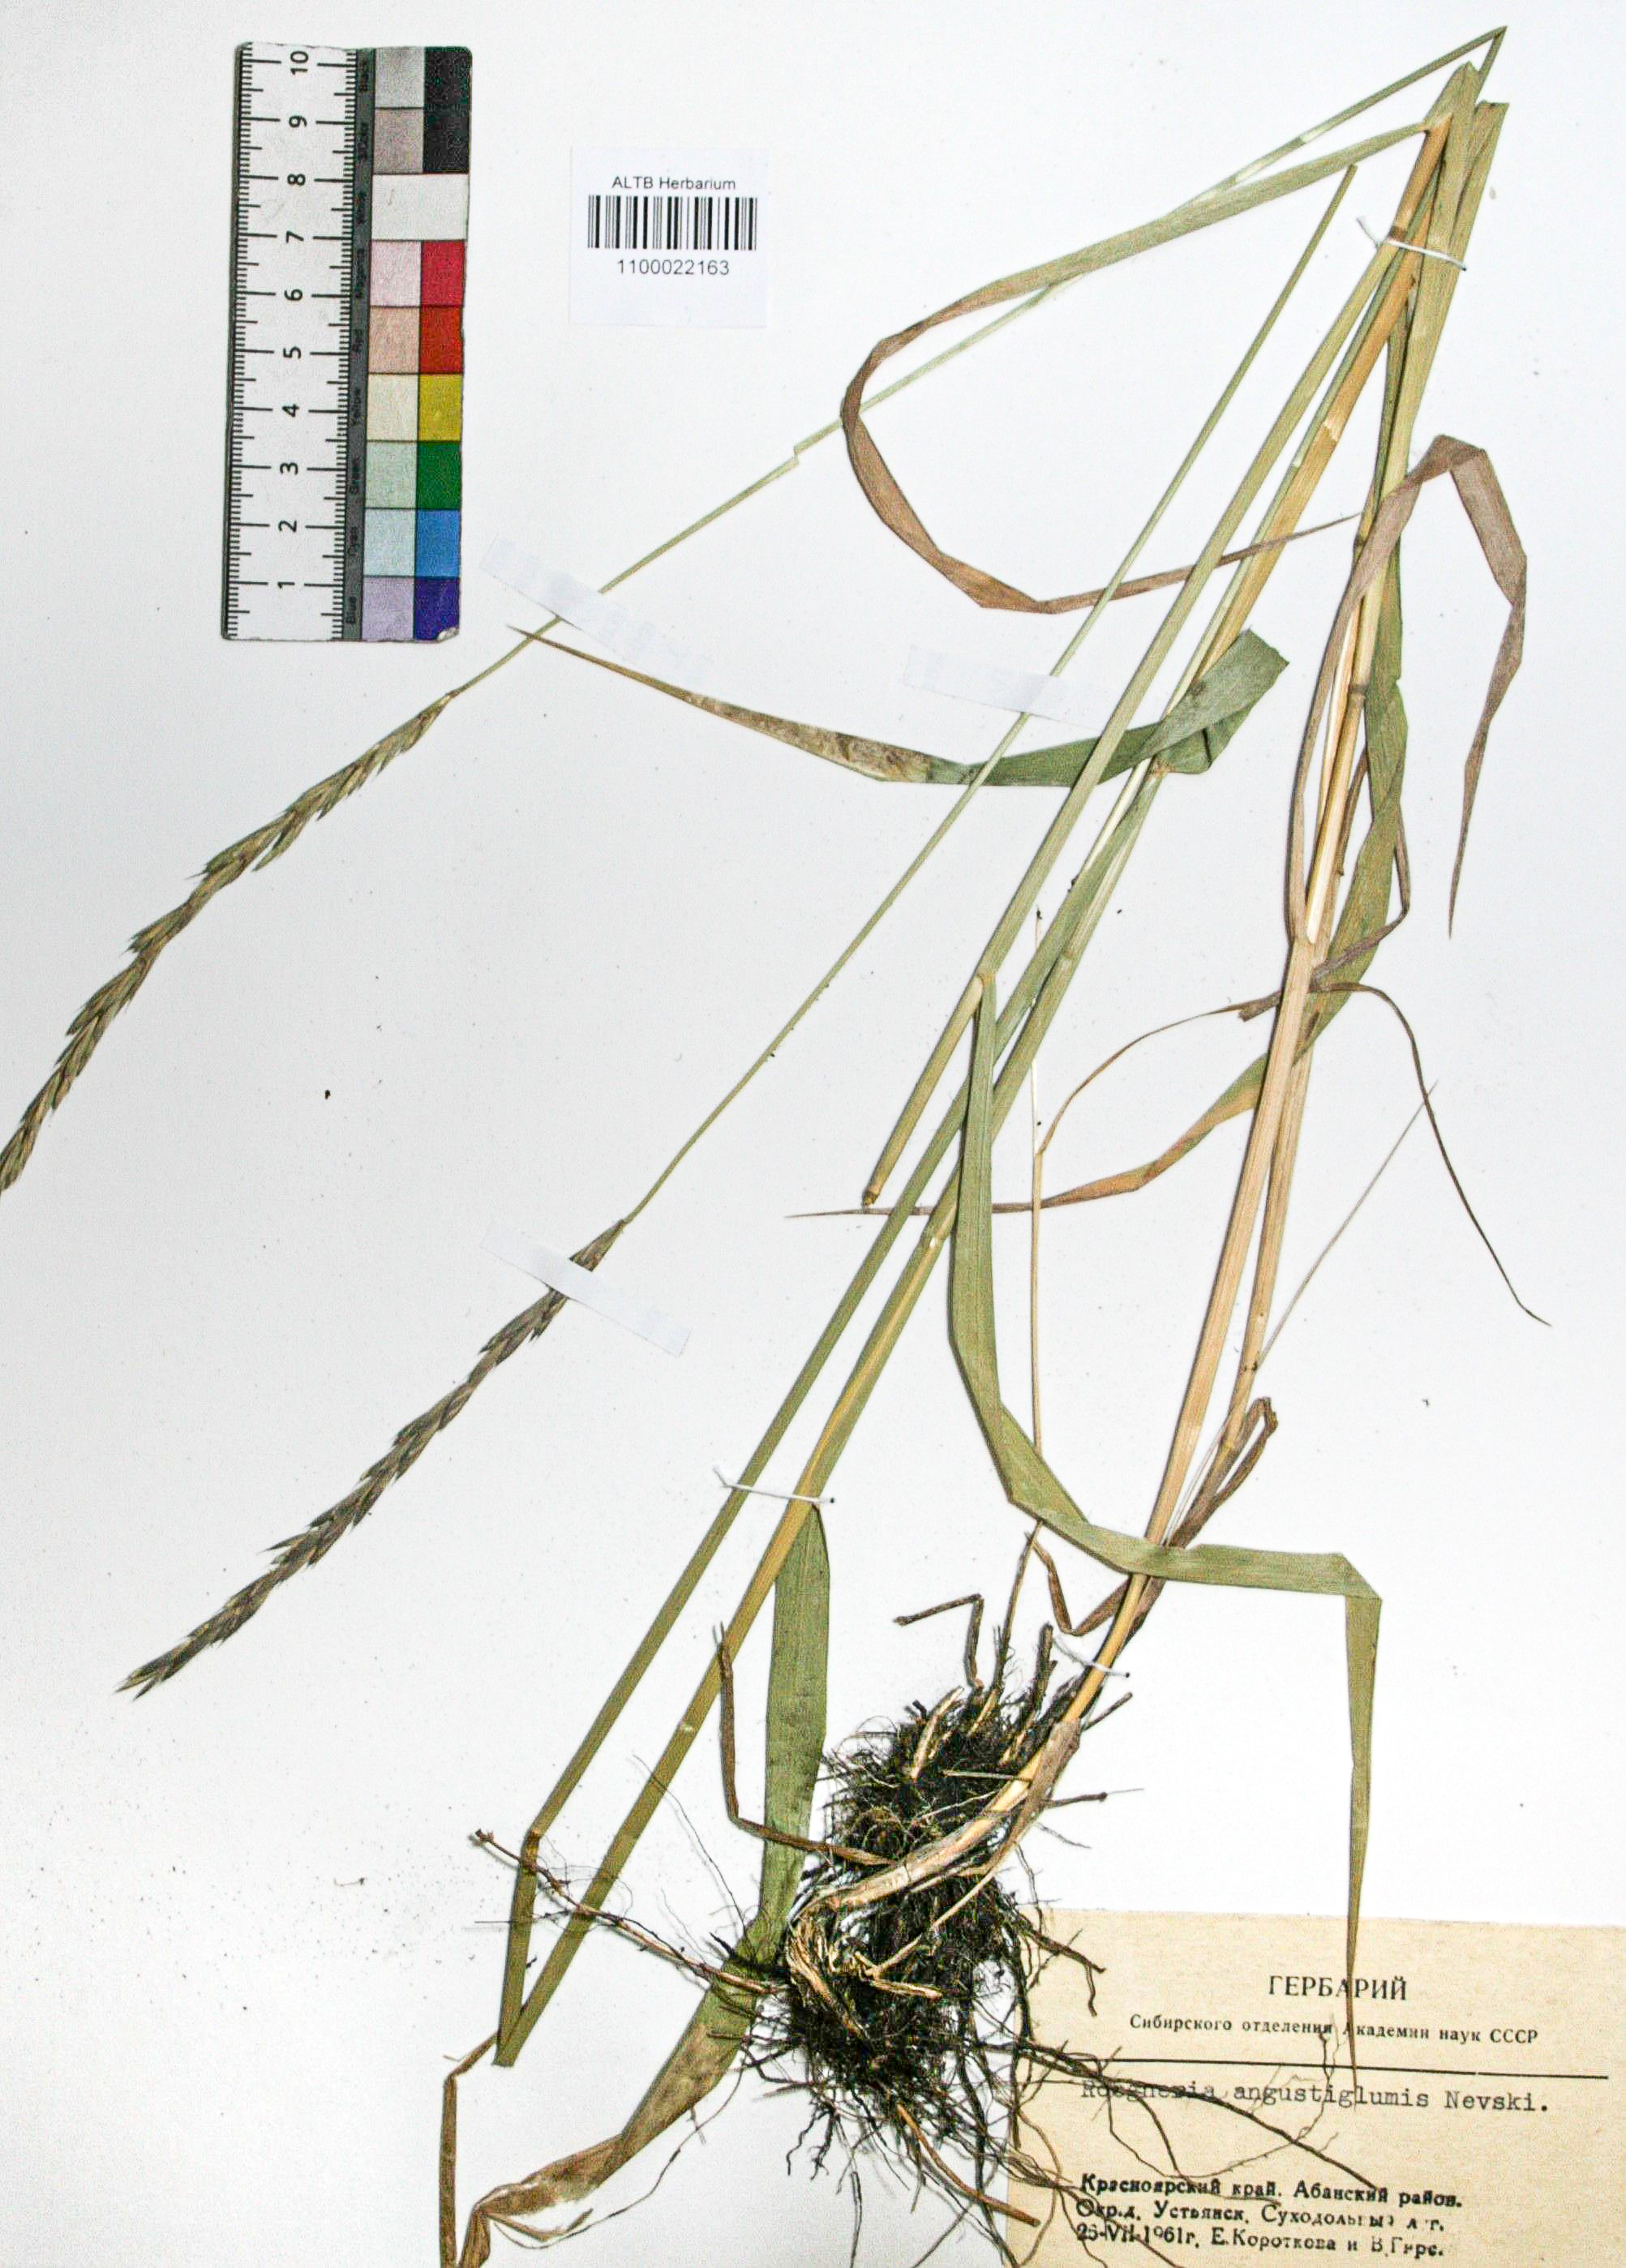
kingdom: Plantae
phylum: Tracheophyta
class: Liliopsida
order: Poales
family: Poaceae
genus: Elymus
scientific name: Elymus mutabilis
